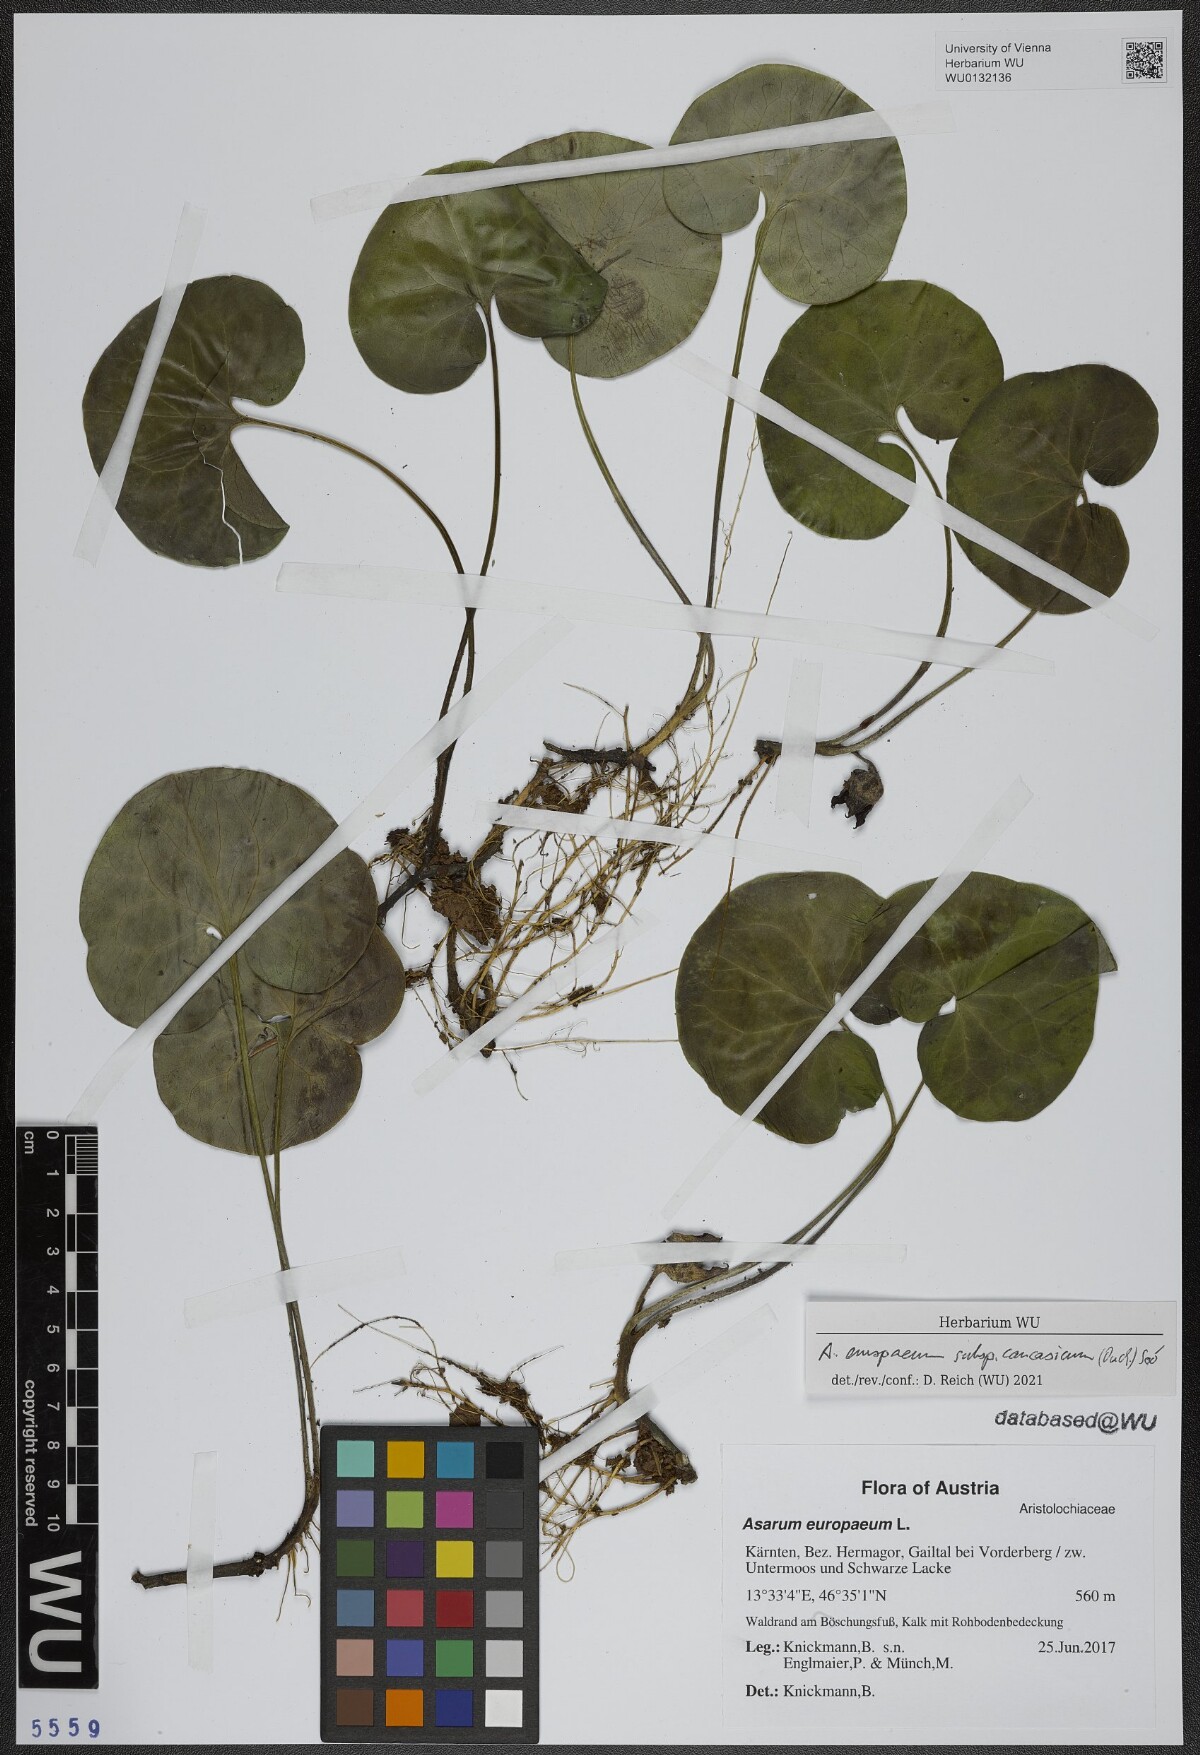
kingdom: Plantae
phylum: Tracheophyta
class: Magnoliopsida
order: Piperales
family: Aristolochiaceae
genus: Asarum
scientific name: Asarum europaeum
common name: Asarabacca
